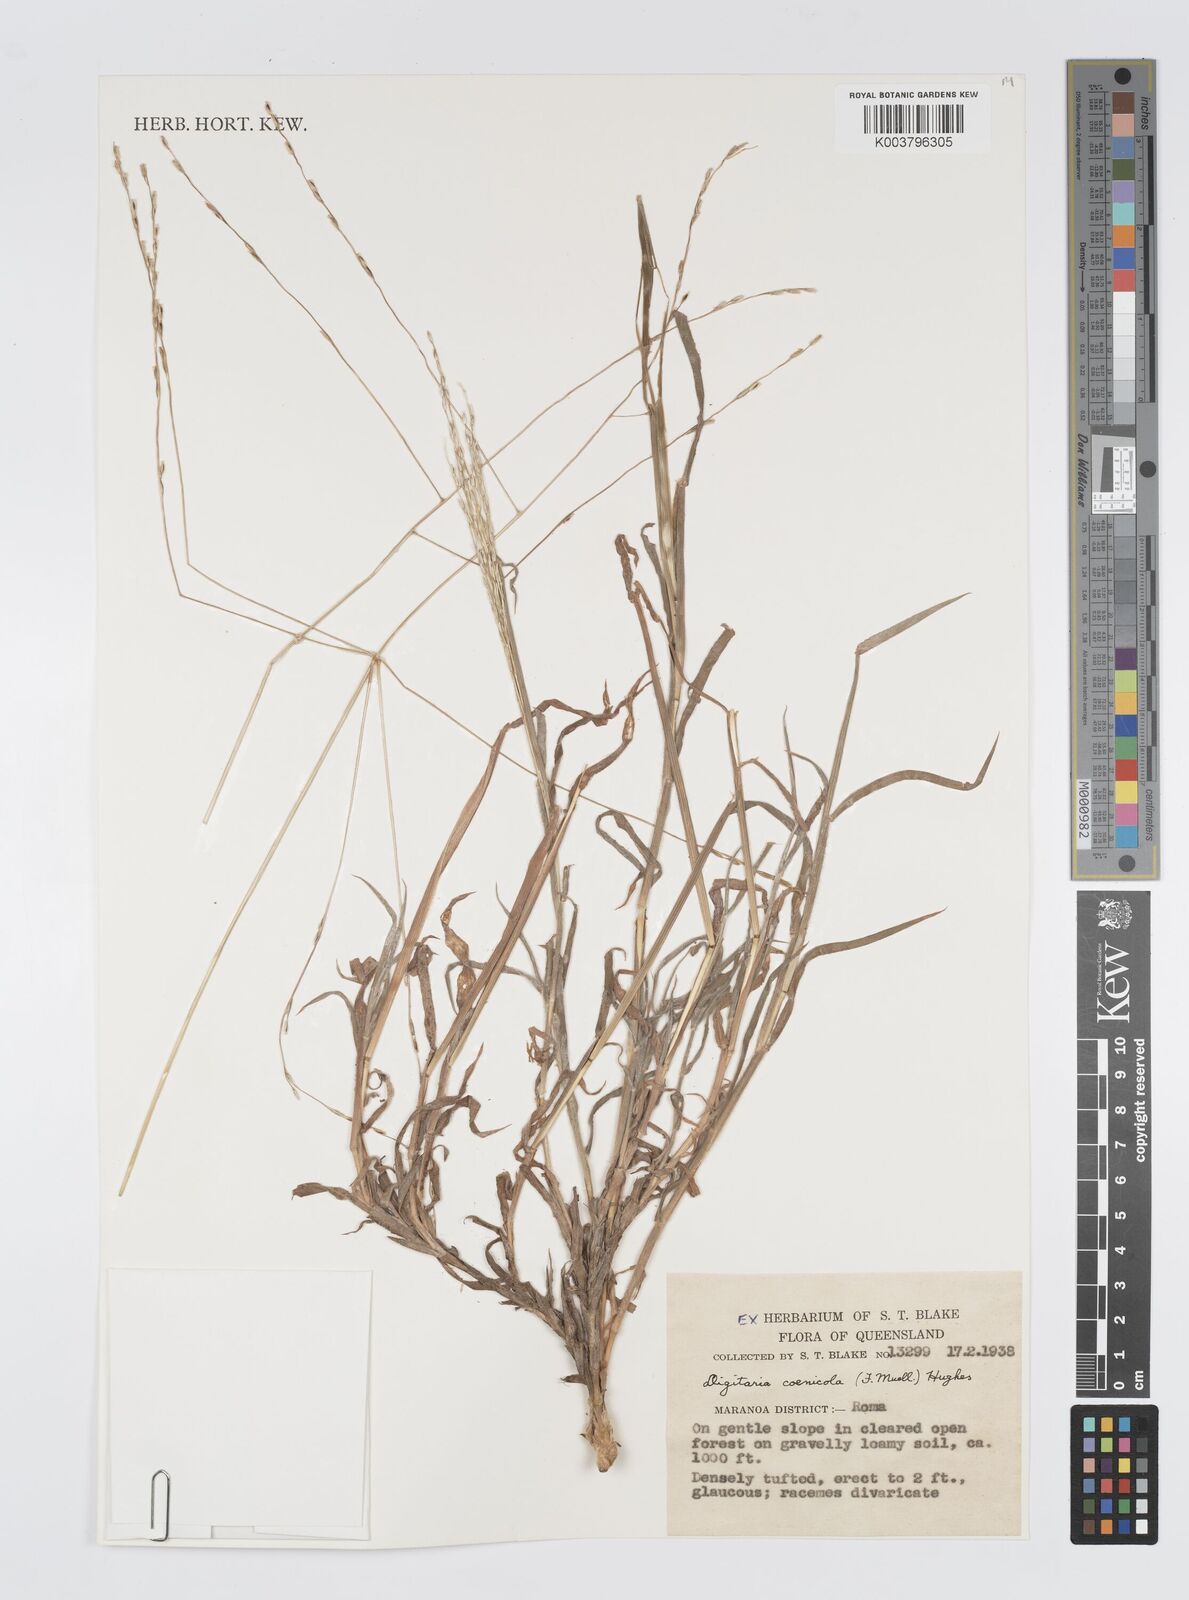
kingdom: Plantae
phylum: Tracheophyta
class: Liliopsida
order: Poales
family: Poaceae
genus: Digitaria
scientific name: Digitaria coenicola
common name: Kanta grass
